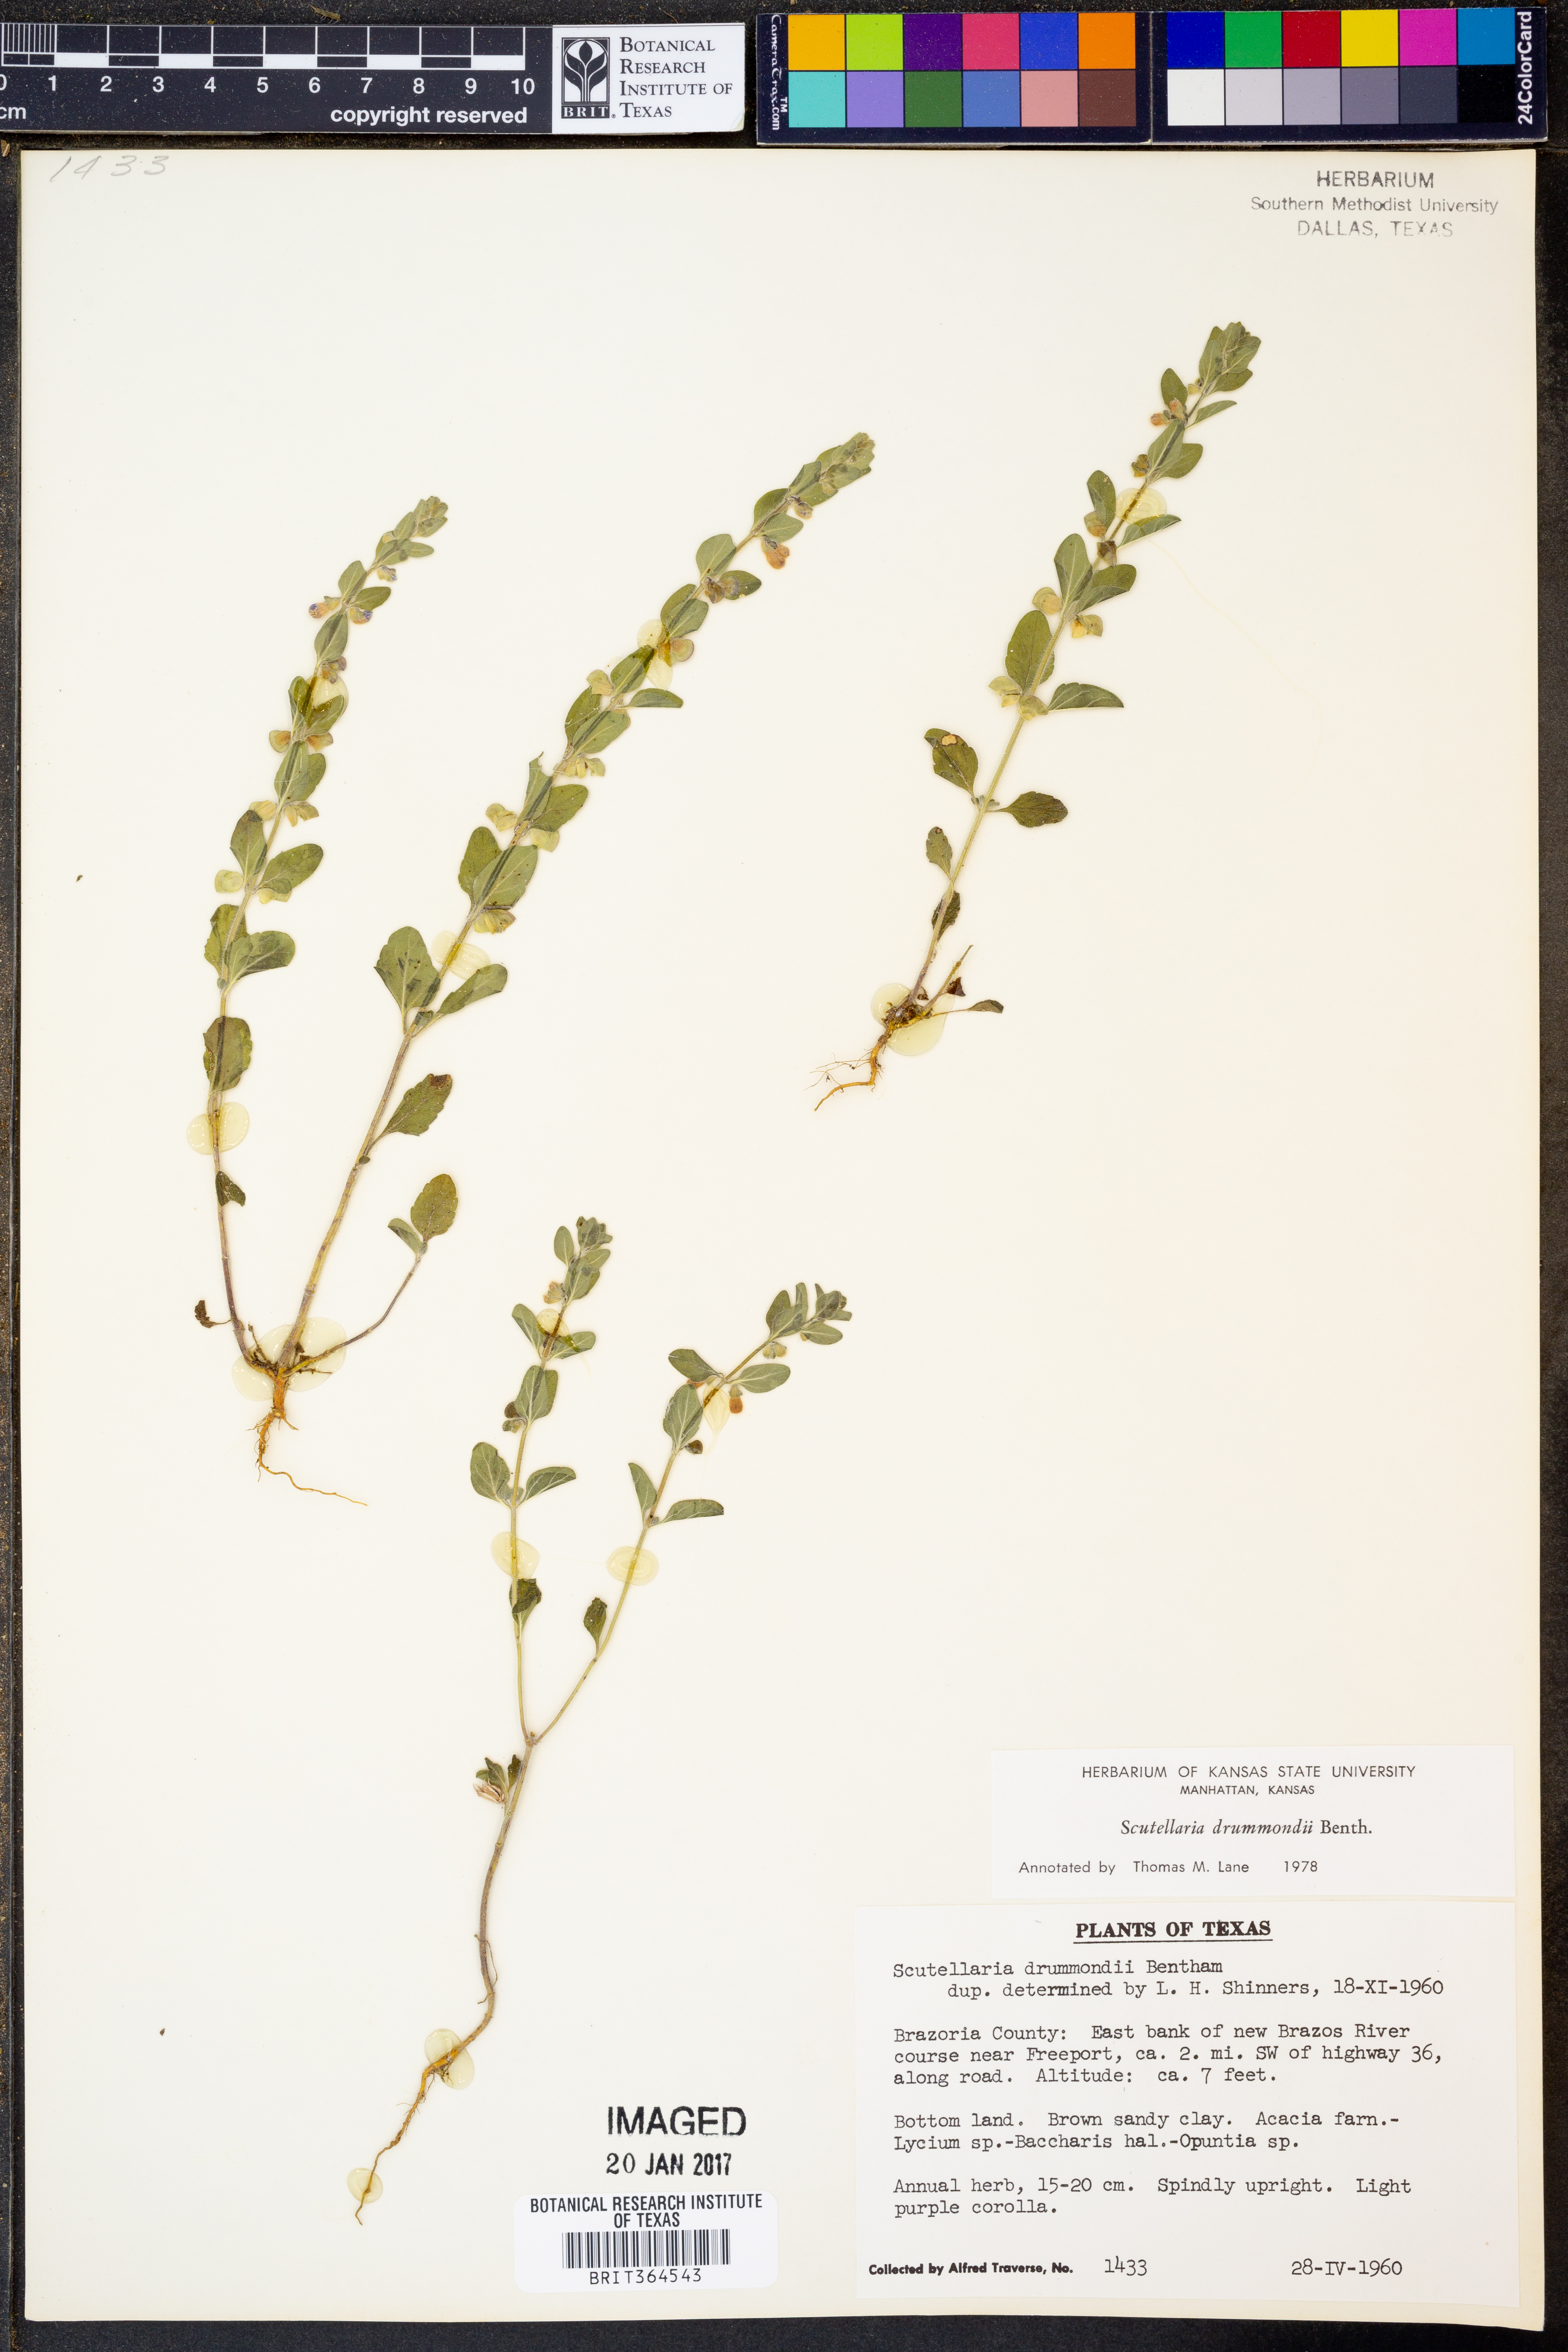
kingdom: Plantae
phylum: Tracheophyta
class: Magnoliopsida
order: Lamiales
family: Lamiaceae
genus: Scutellaria
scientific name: Scutellaria drummondii
